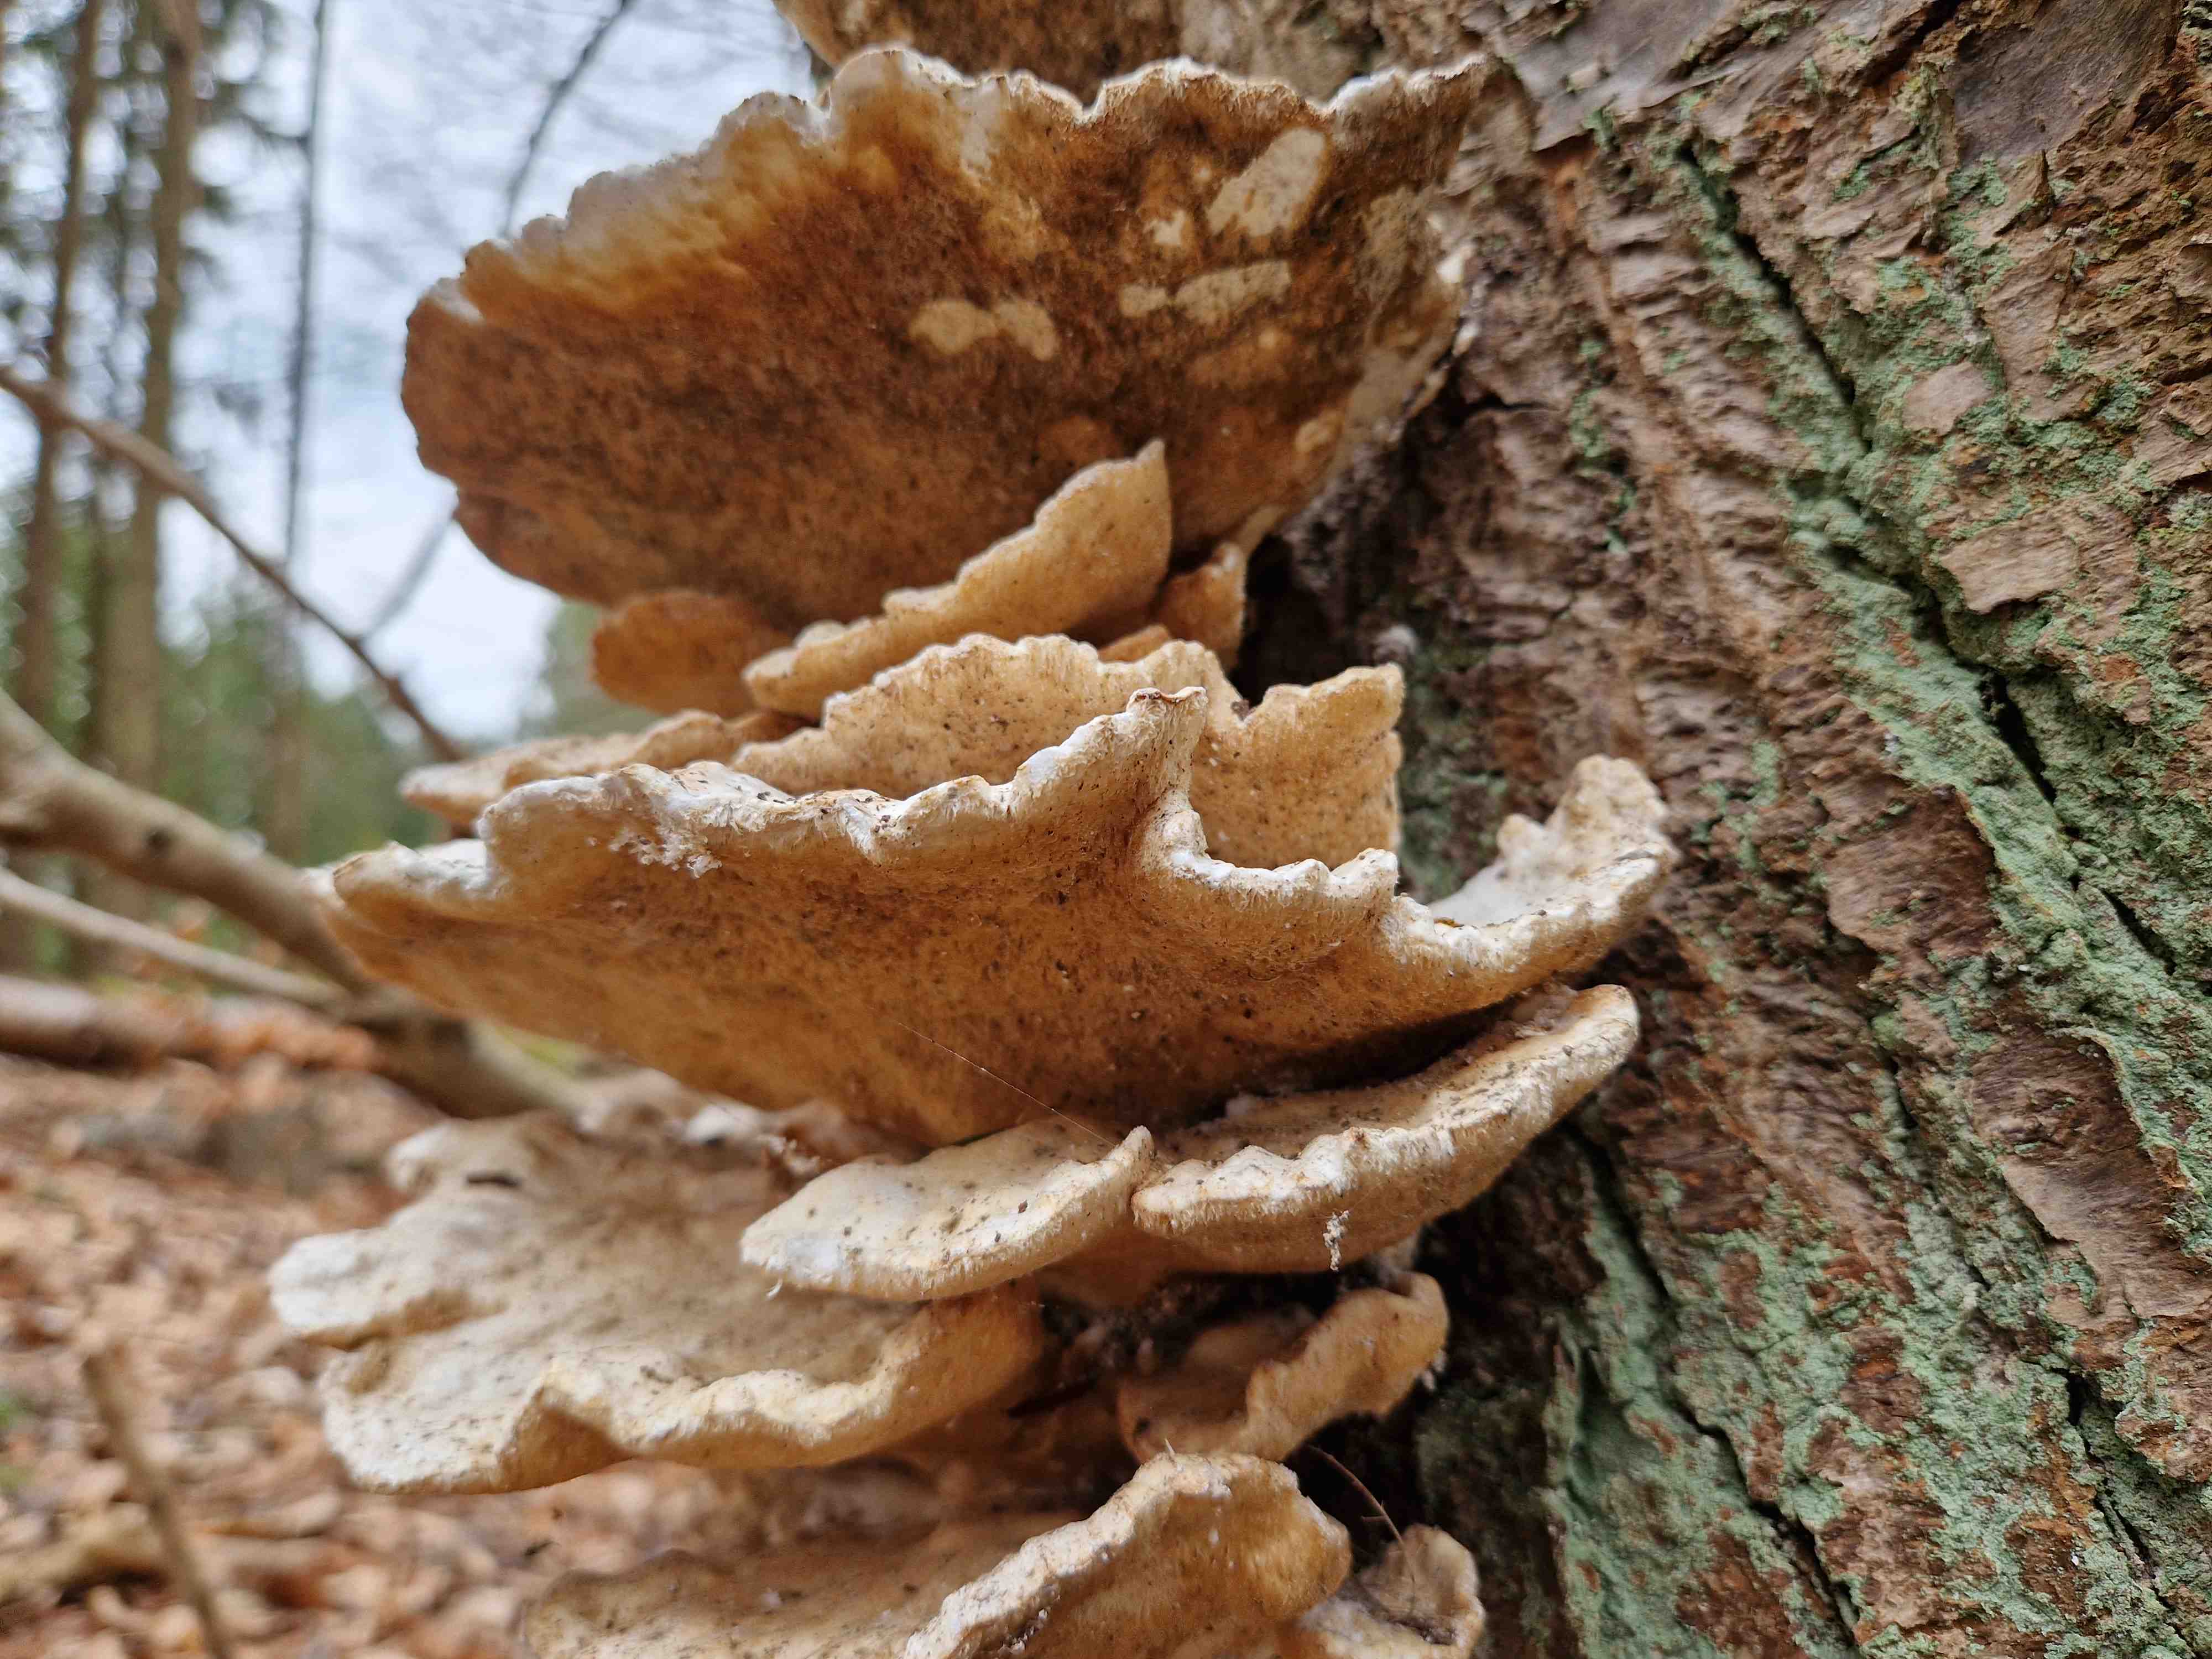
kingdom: Fungi
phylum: Basidiomycota
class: Agaricomycetes
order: Polyporales
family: Laetiporaceae
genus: Laetiporus
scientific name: Laetiporus sulphureus
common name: svovlporesvamp
